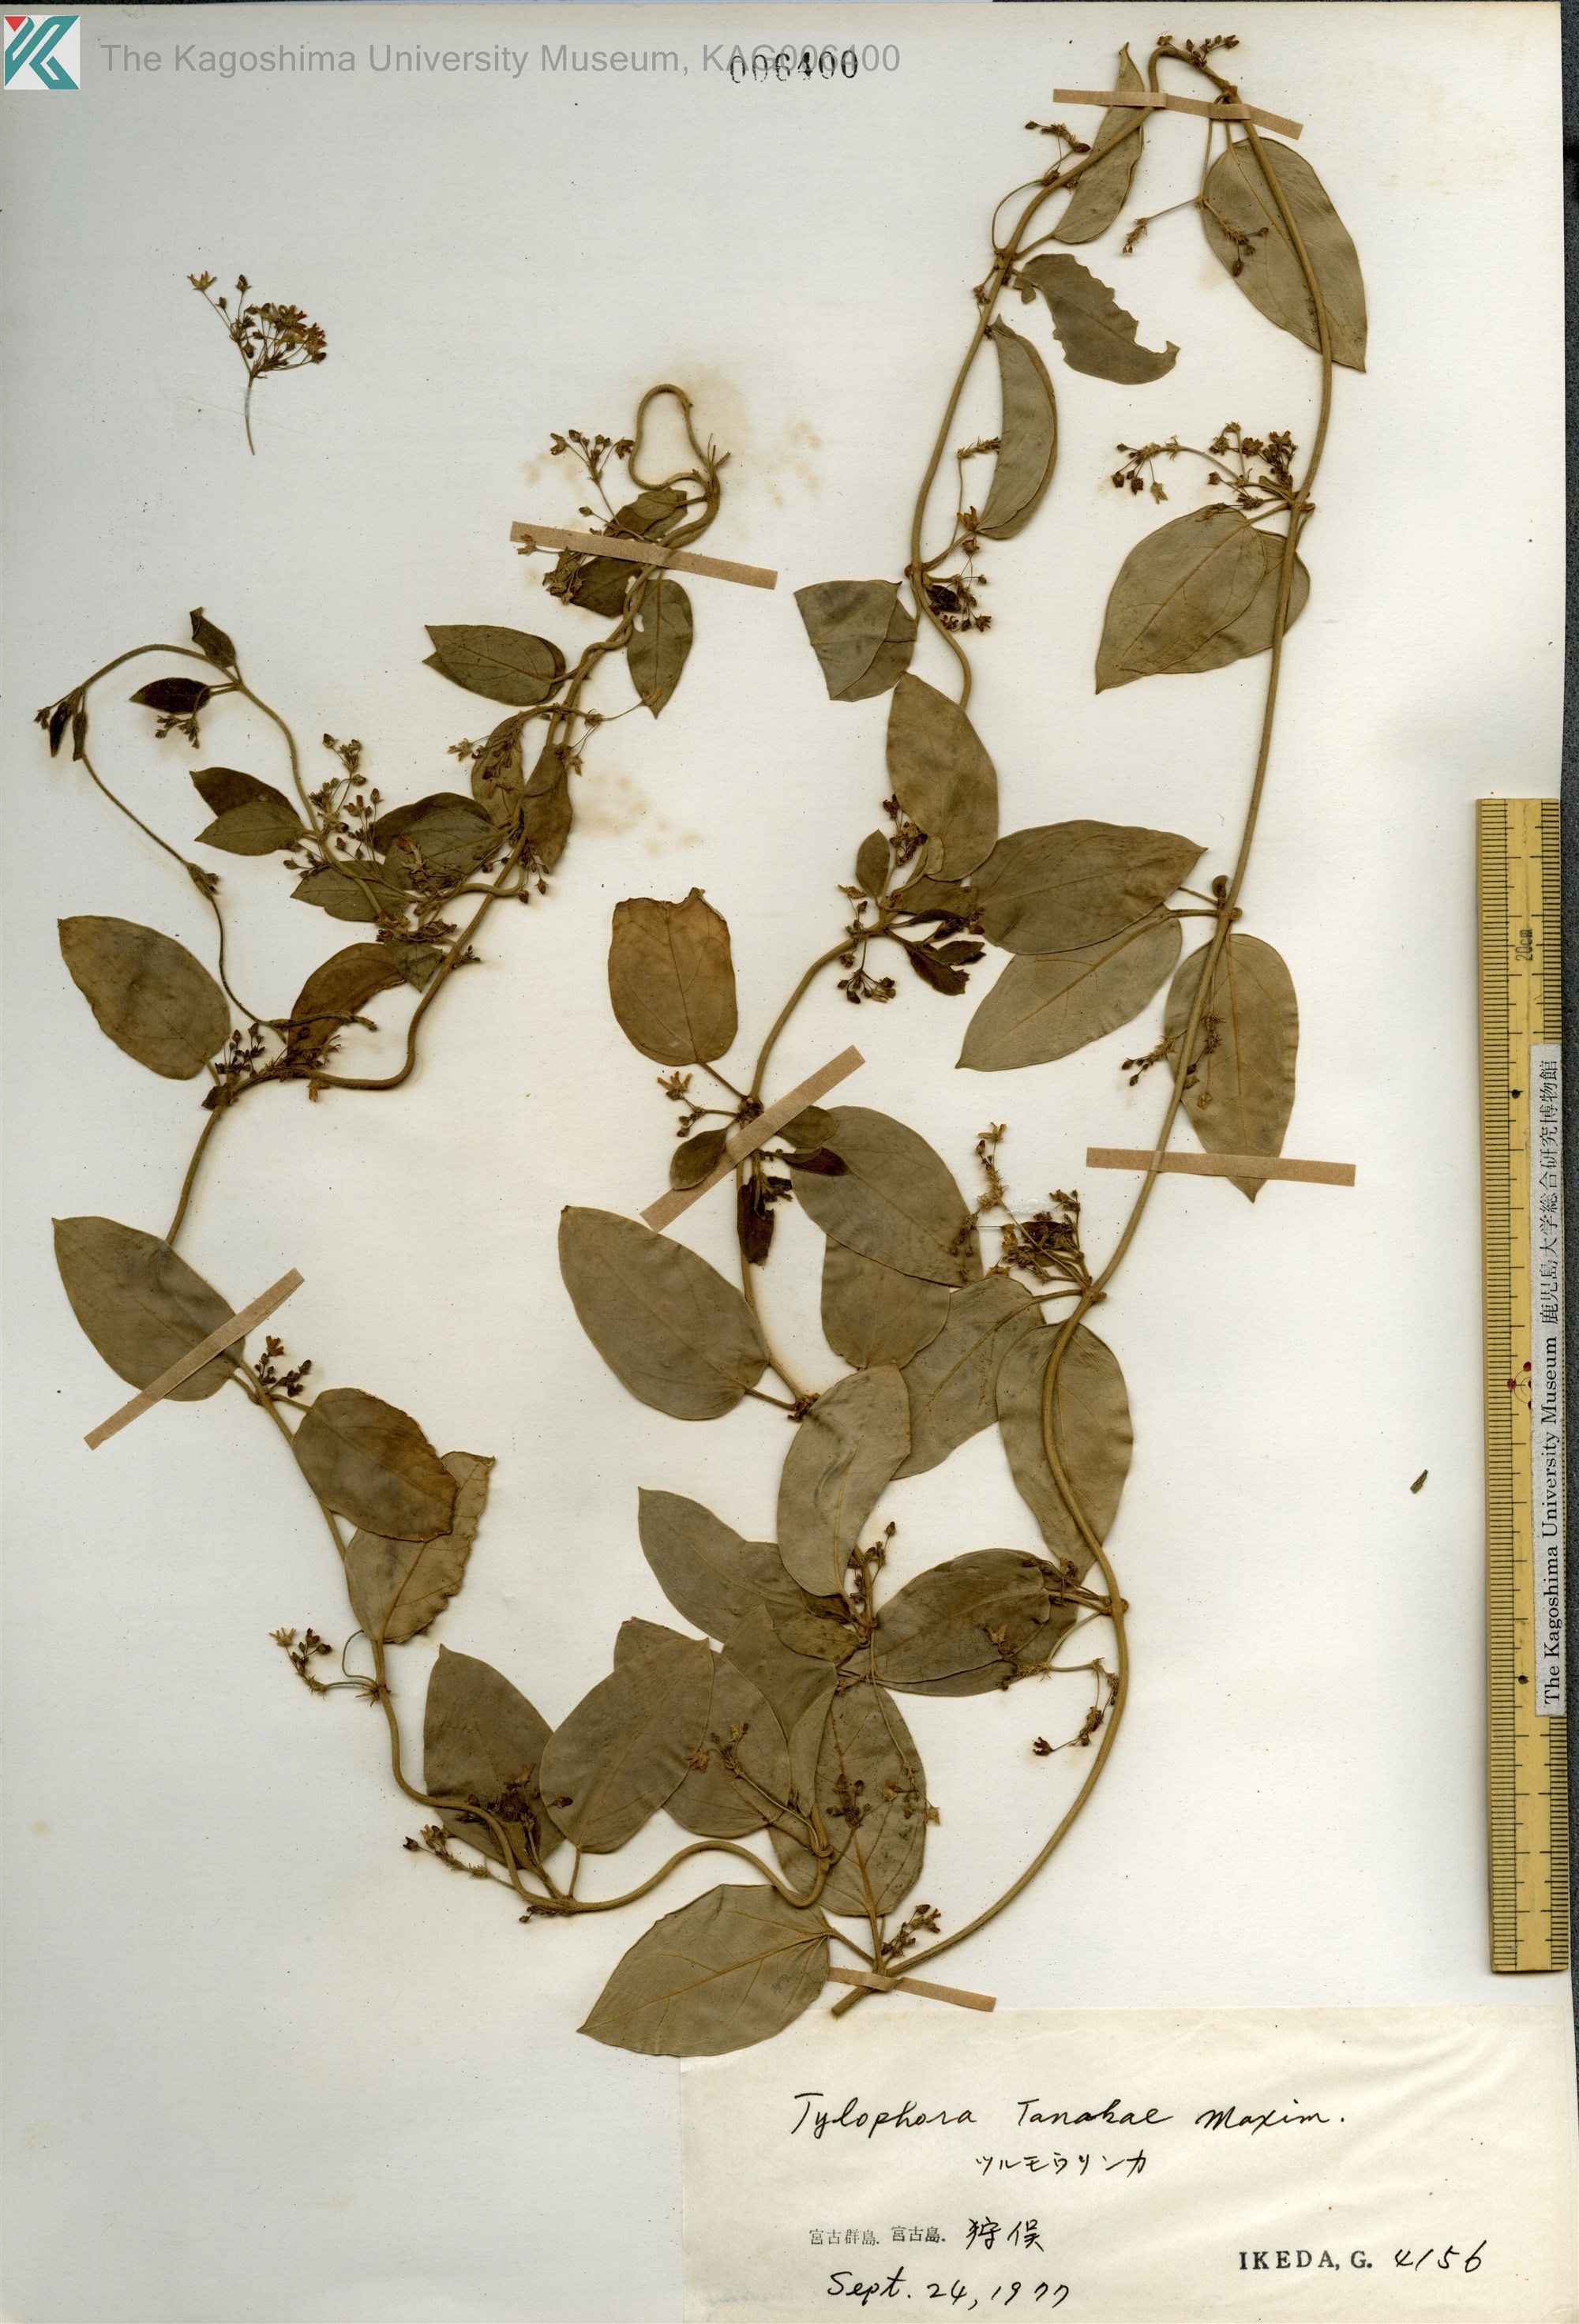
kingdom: Plantae
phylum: Tracheophyta
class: Magnoliopsida
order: Gentianales
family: Apocynaceae
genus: Vincetoxicum
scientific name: Vincetoxicum Tylophora tanakae
